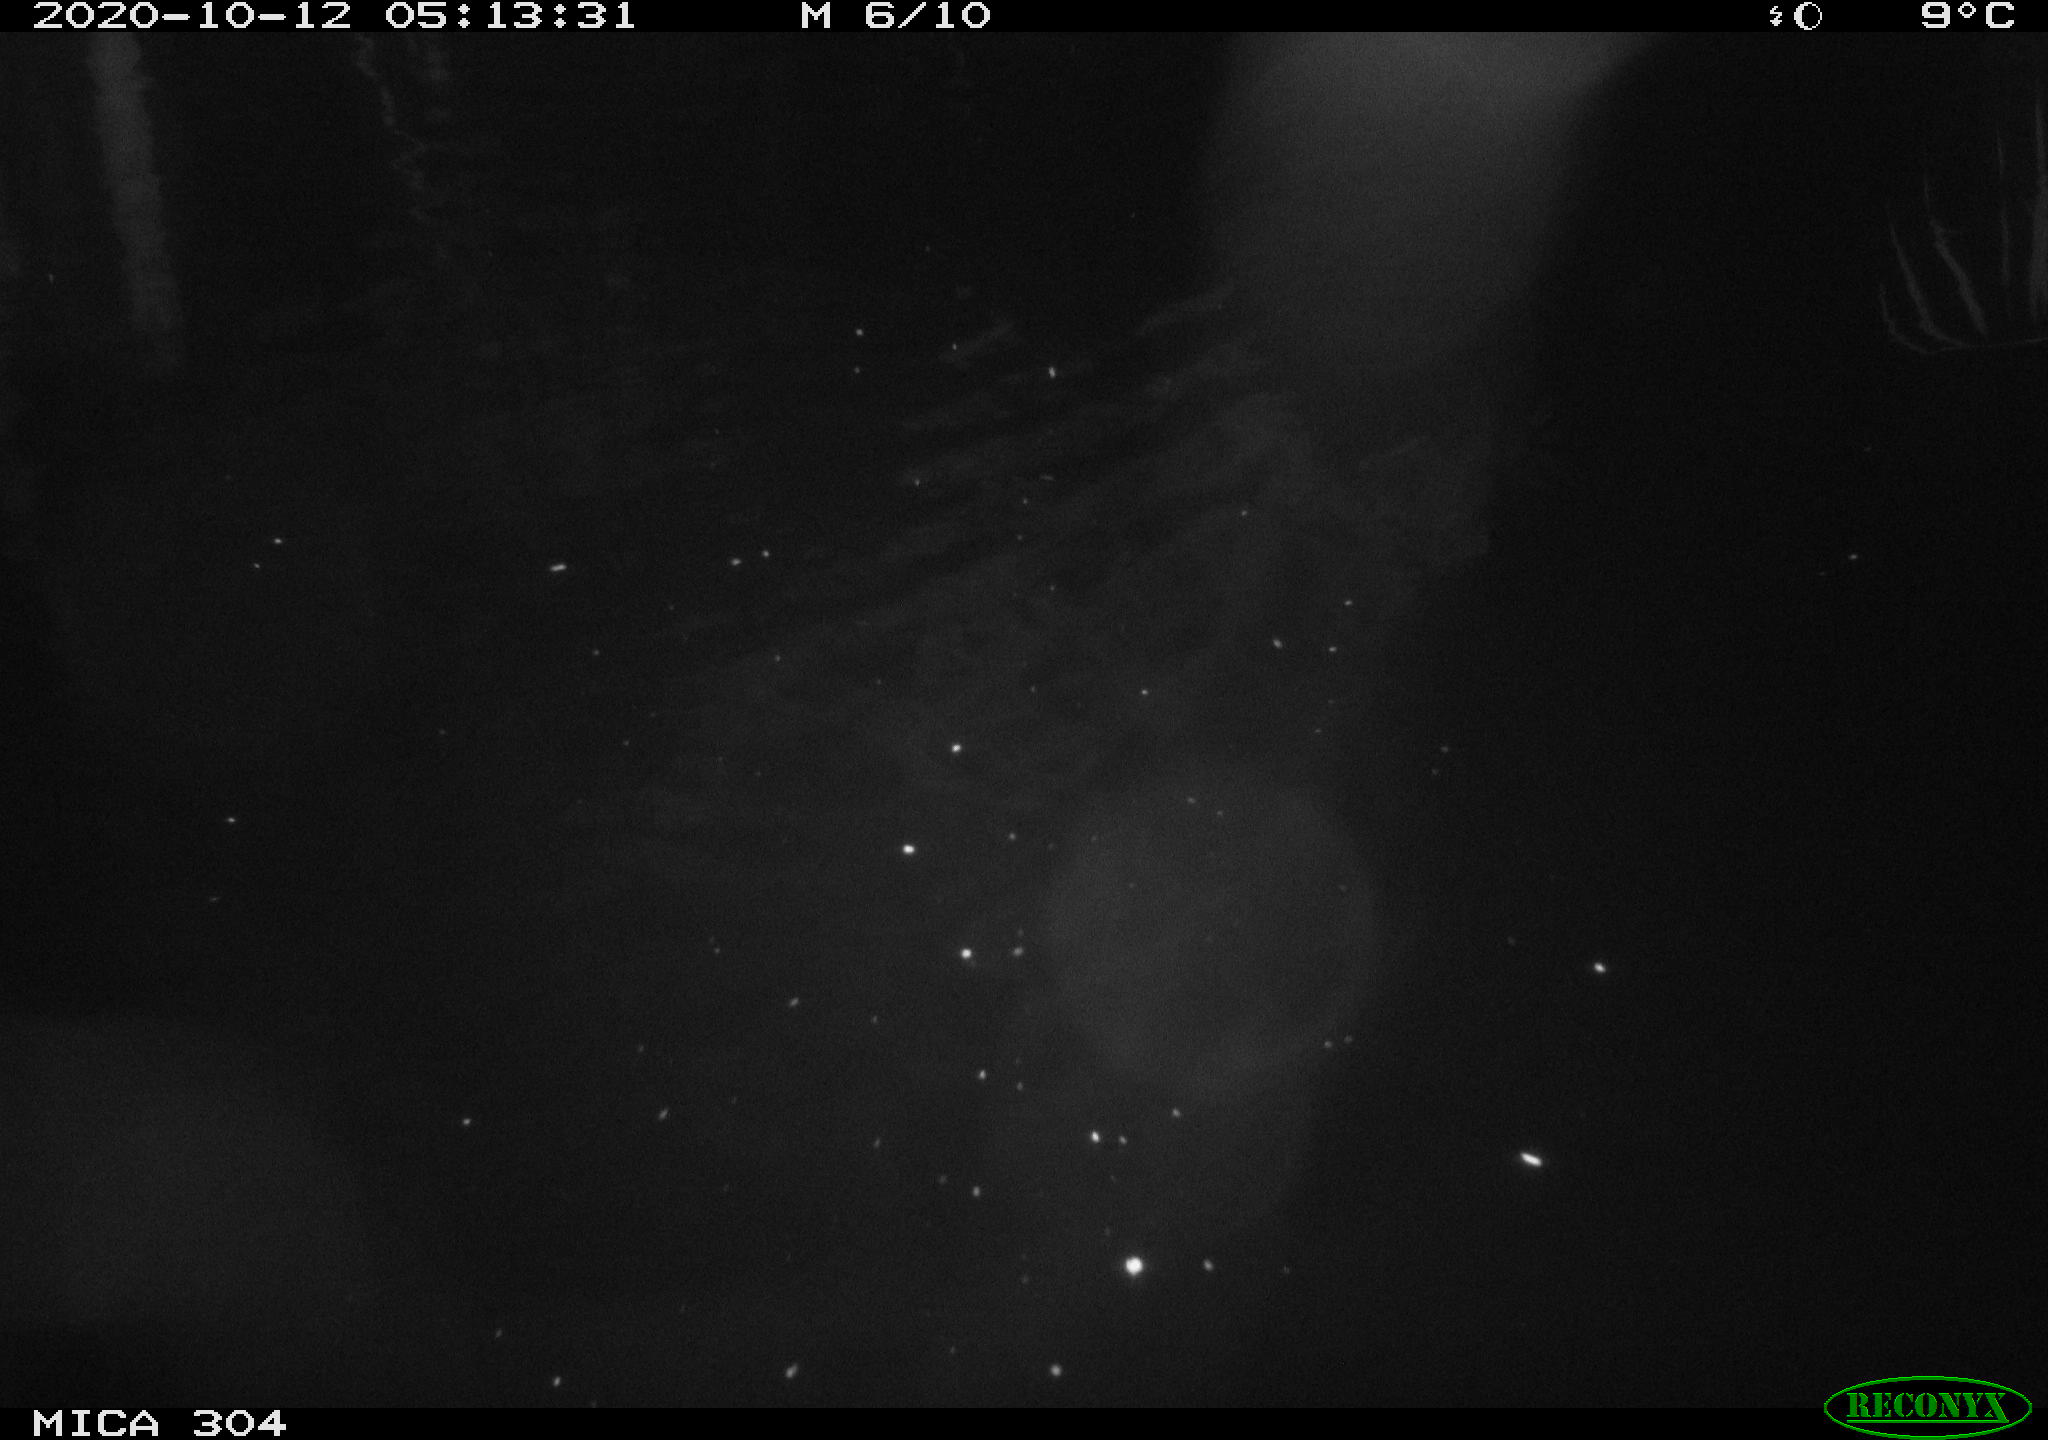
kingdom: Animalia
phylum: Chordata
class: Mammalia
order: Rodentia
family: Cricetidae
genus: Ondatra
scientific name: Ondatra zibethicus
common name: Muskrat
